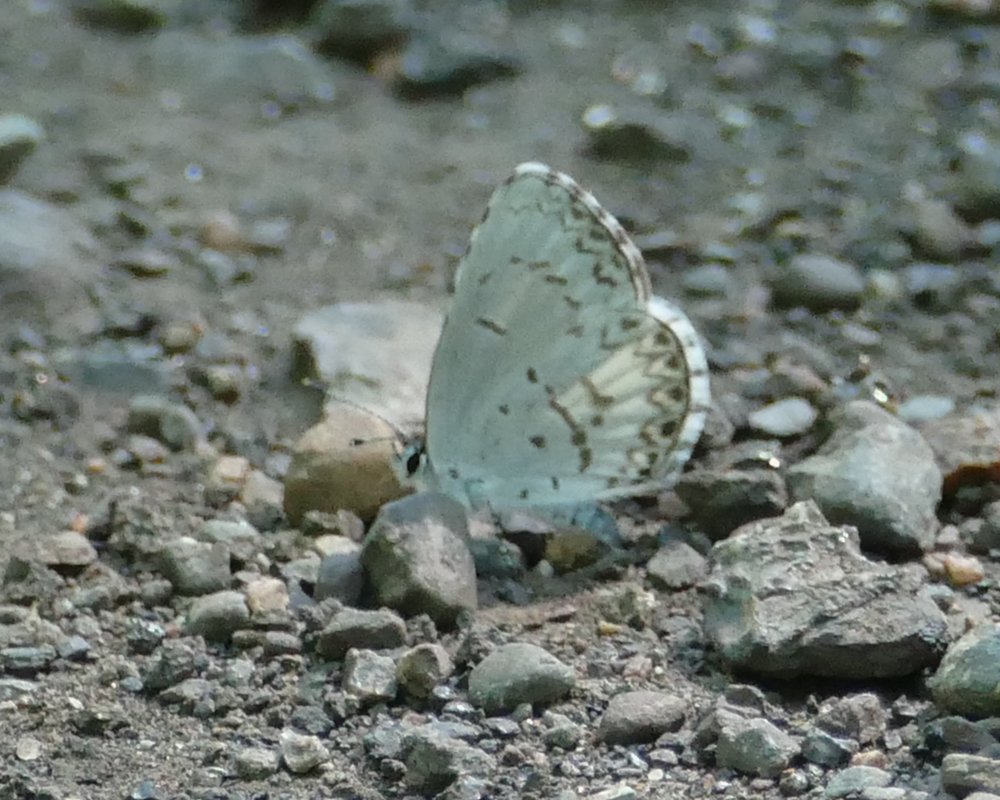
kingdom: Animalia
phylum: Arthropoda
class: Insecta
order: Lepidoptera
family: Lycaenidae
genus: Celastrina
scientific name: Celastrina lucia
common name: Northern Spring Azure
